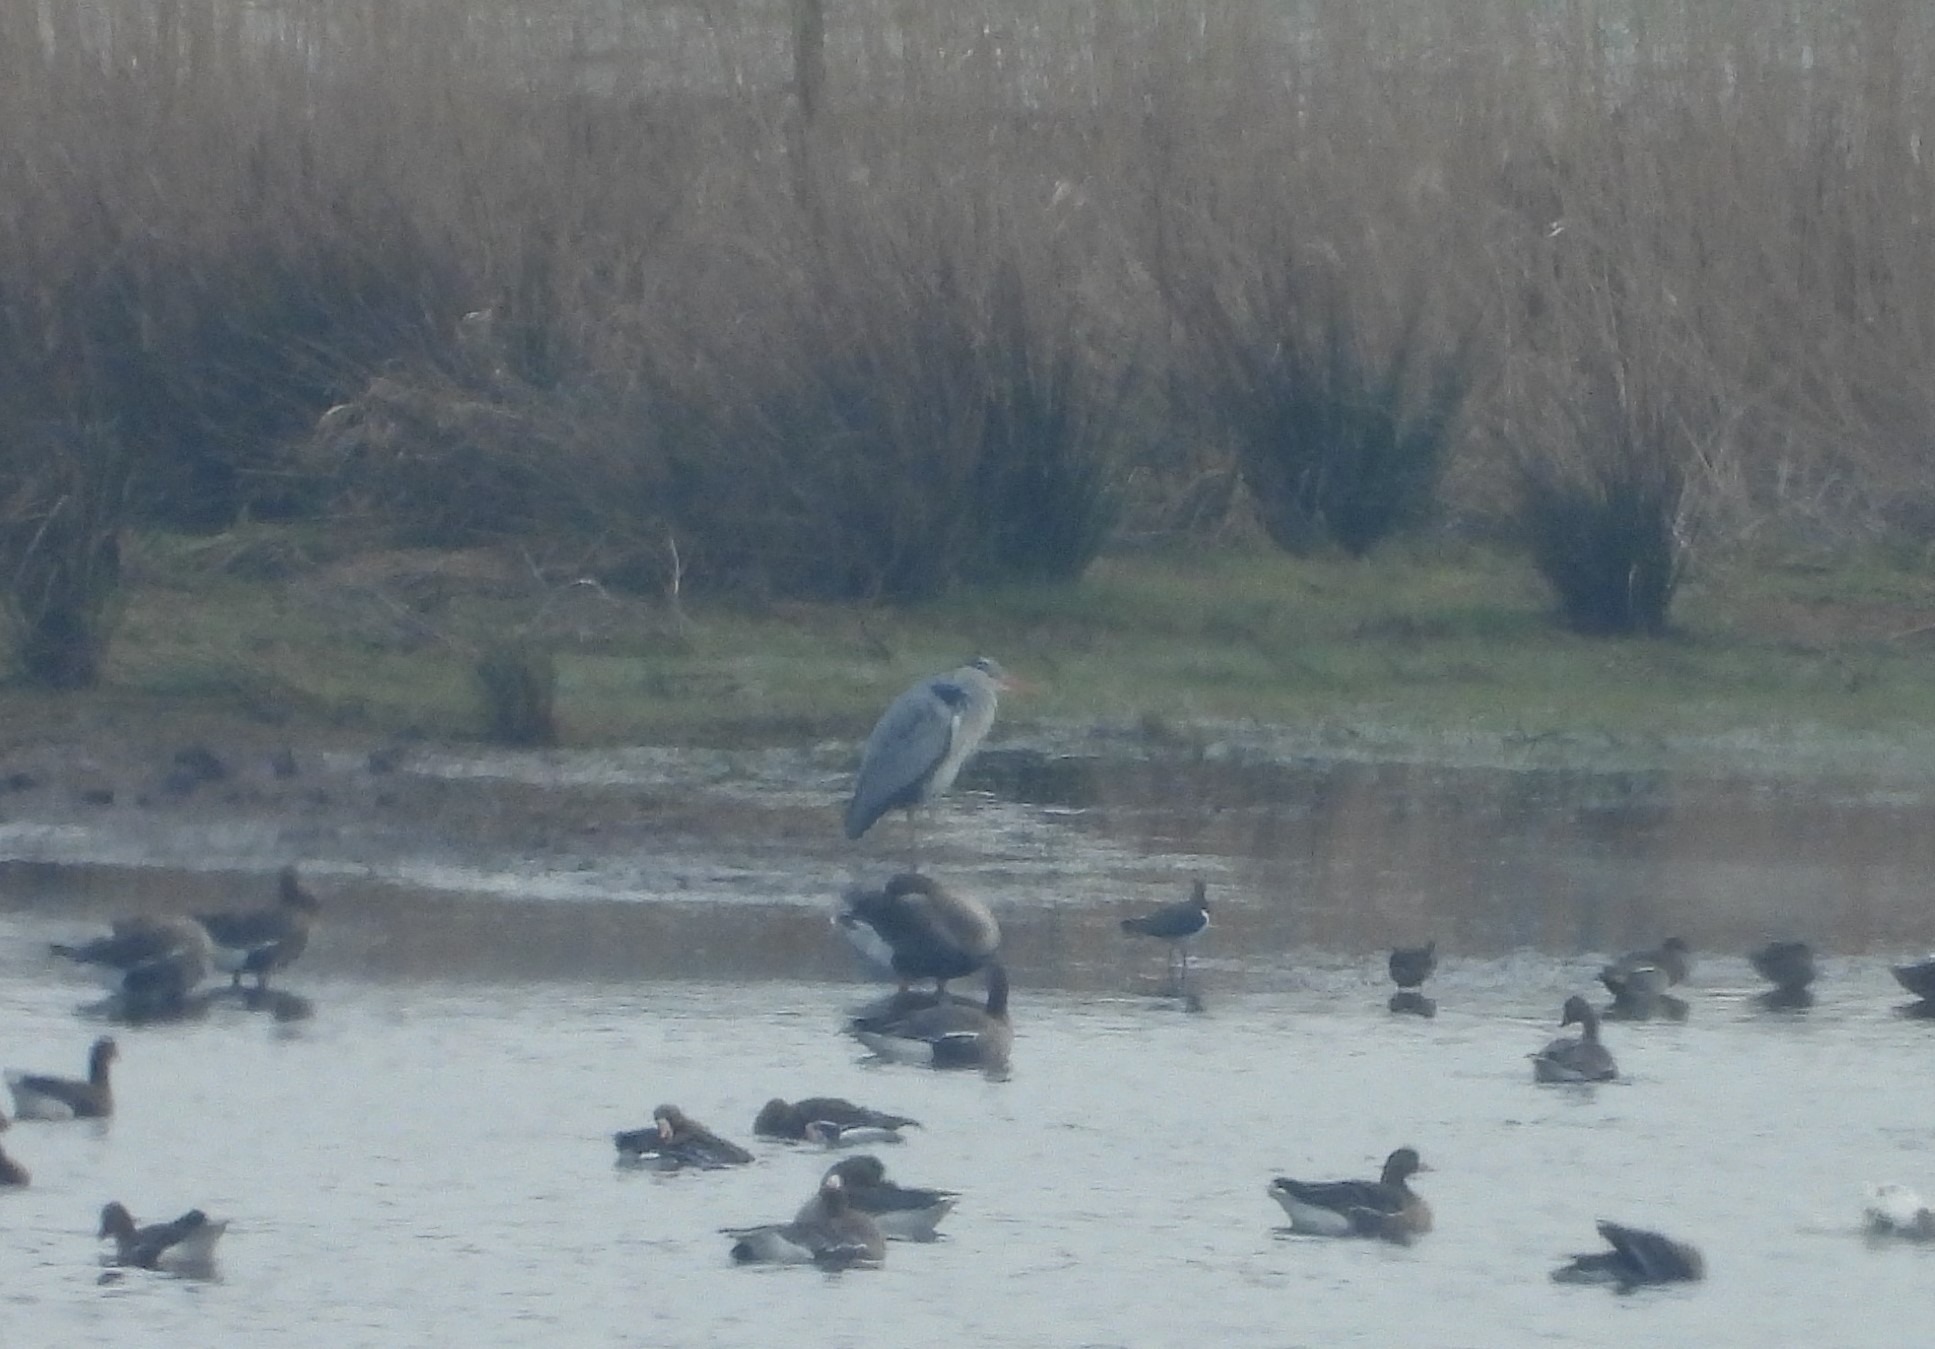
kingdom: Animalia
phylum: Chordata
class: Aves
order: Pelecaniformes
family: Ardeidae
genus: Ardea
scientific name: Ardea cinerea
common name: Fiskehejre
